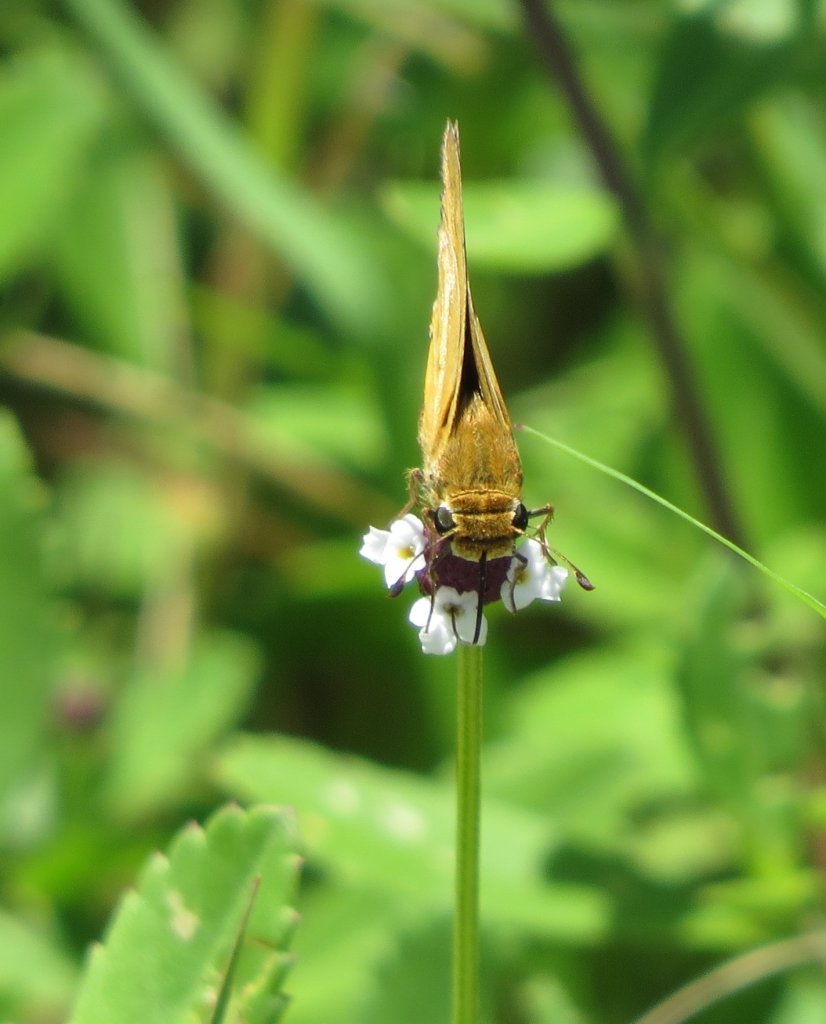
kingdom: Animalia
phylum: Arthropoda
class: Insecta
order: Lepidoptera
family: Hesperiidae
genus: Hylephila
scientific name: Hylephila phyleus
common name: Fiery Skipper
